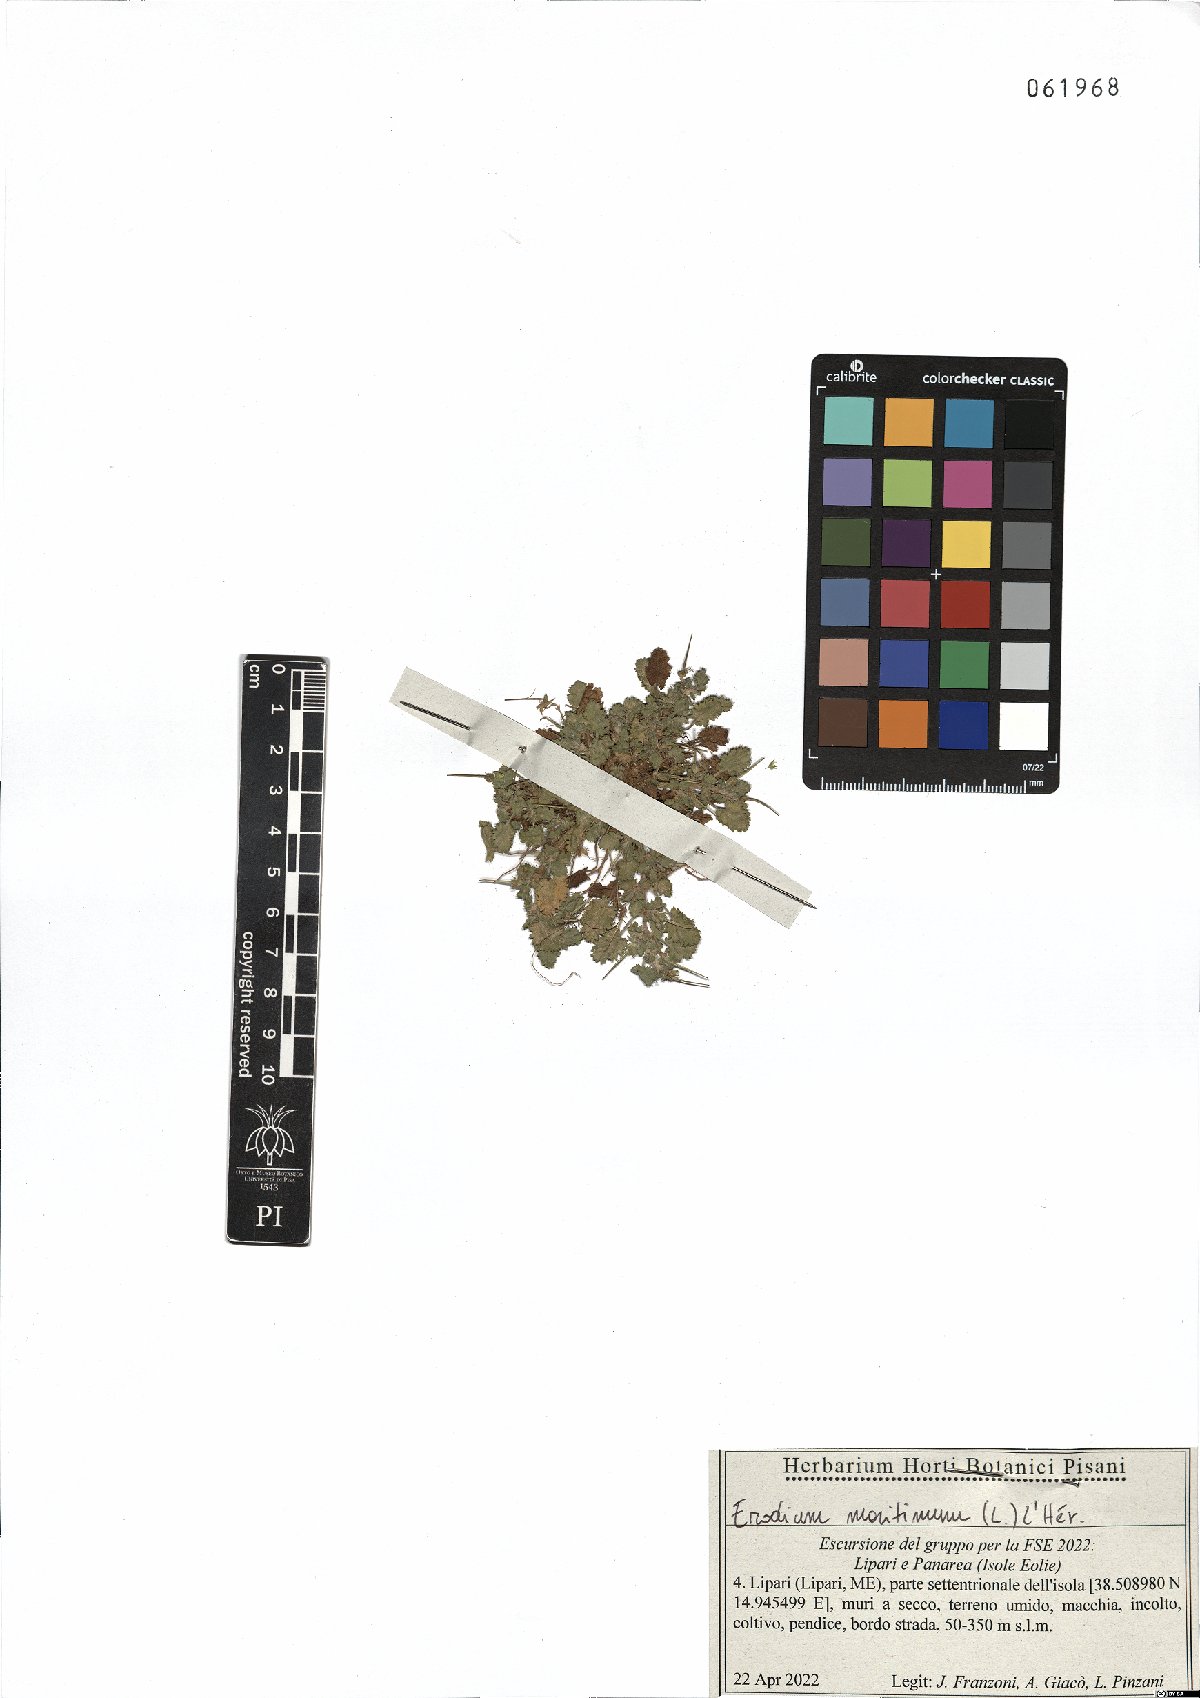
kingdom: Plantae
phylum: Tracheophyta
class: Magnoliopsida
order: Geraniales
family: Geraniaceae
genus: Erodium
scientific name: Erodium maritimum
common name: Sea stork's-bill
